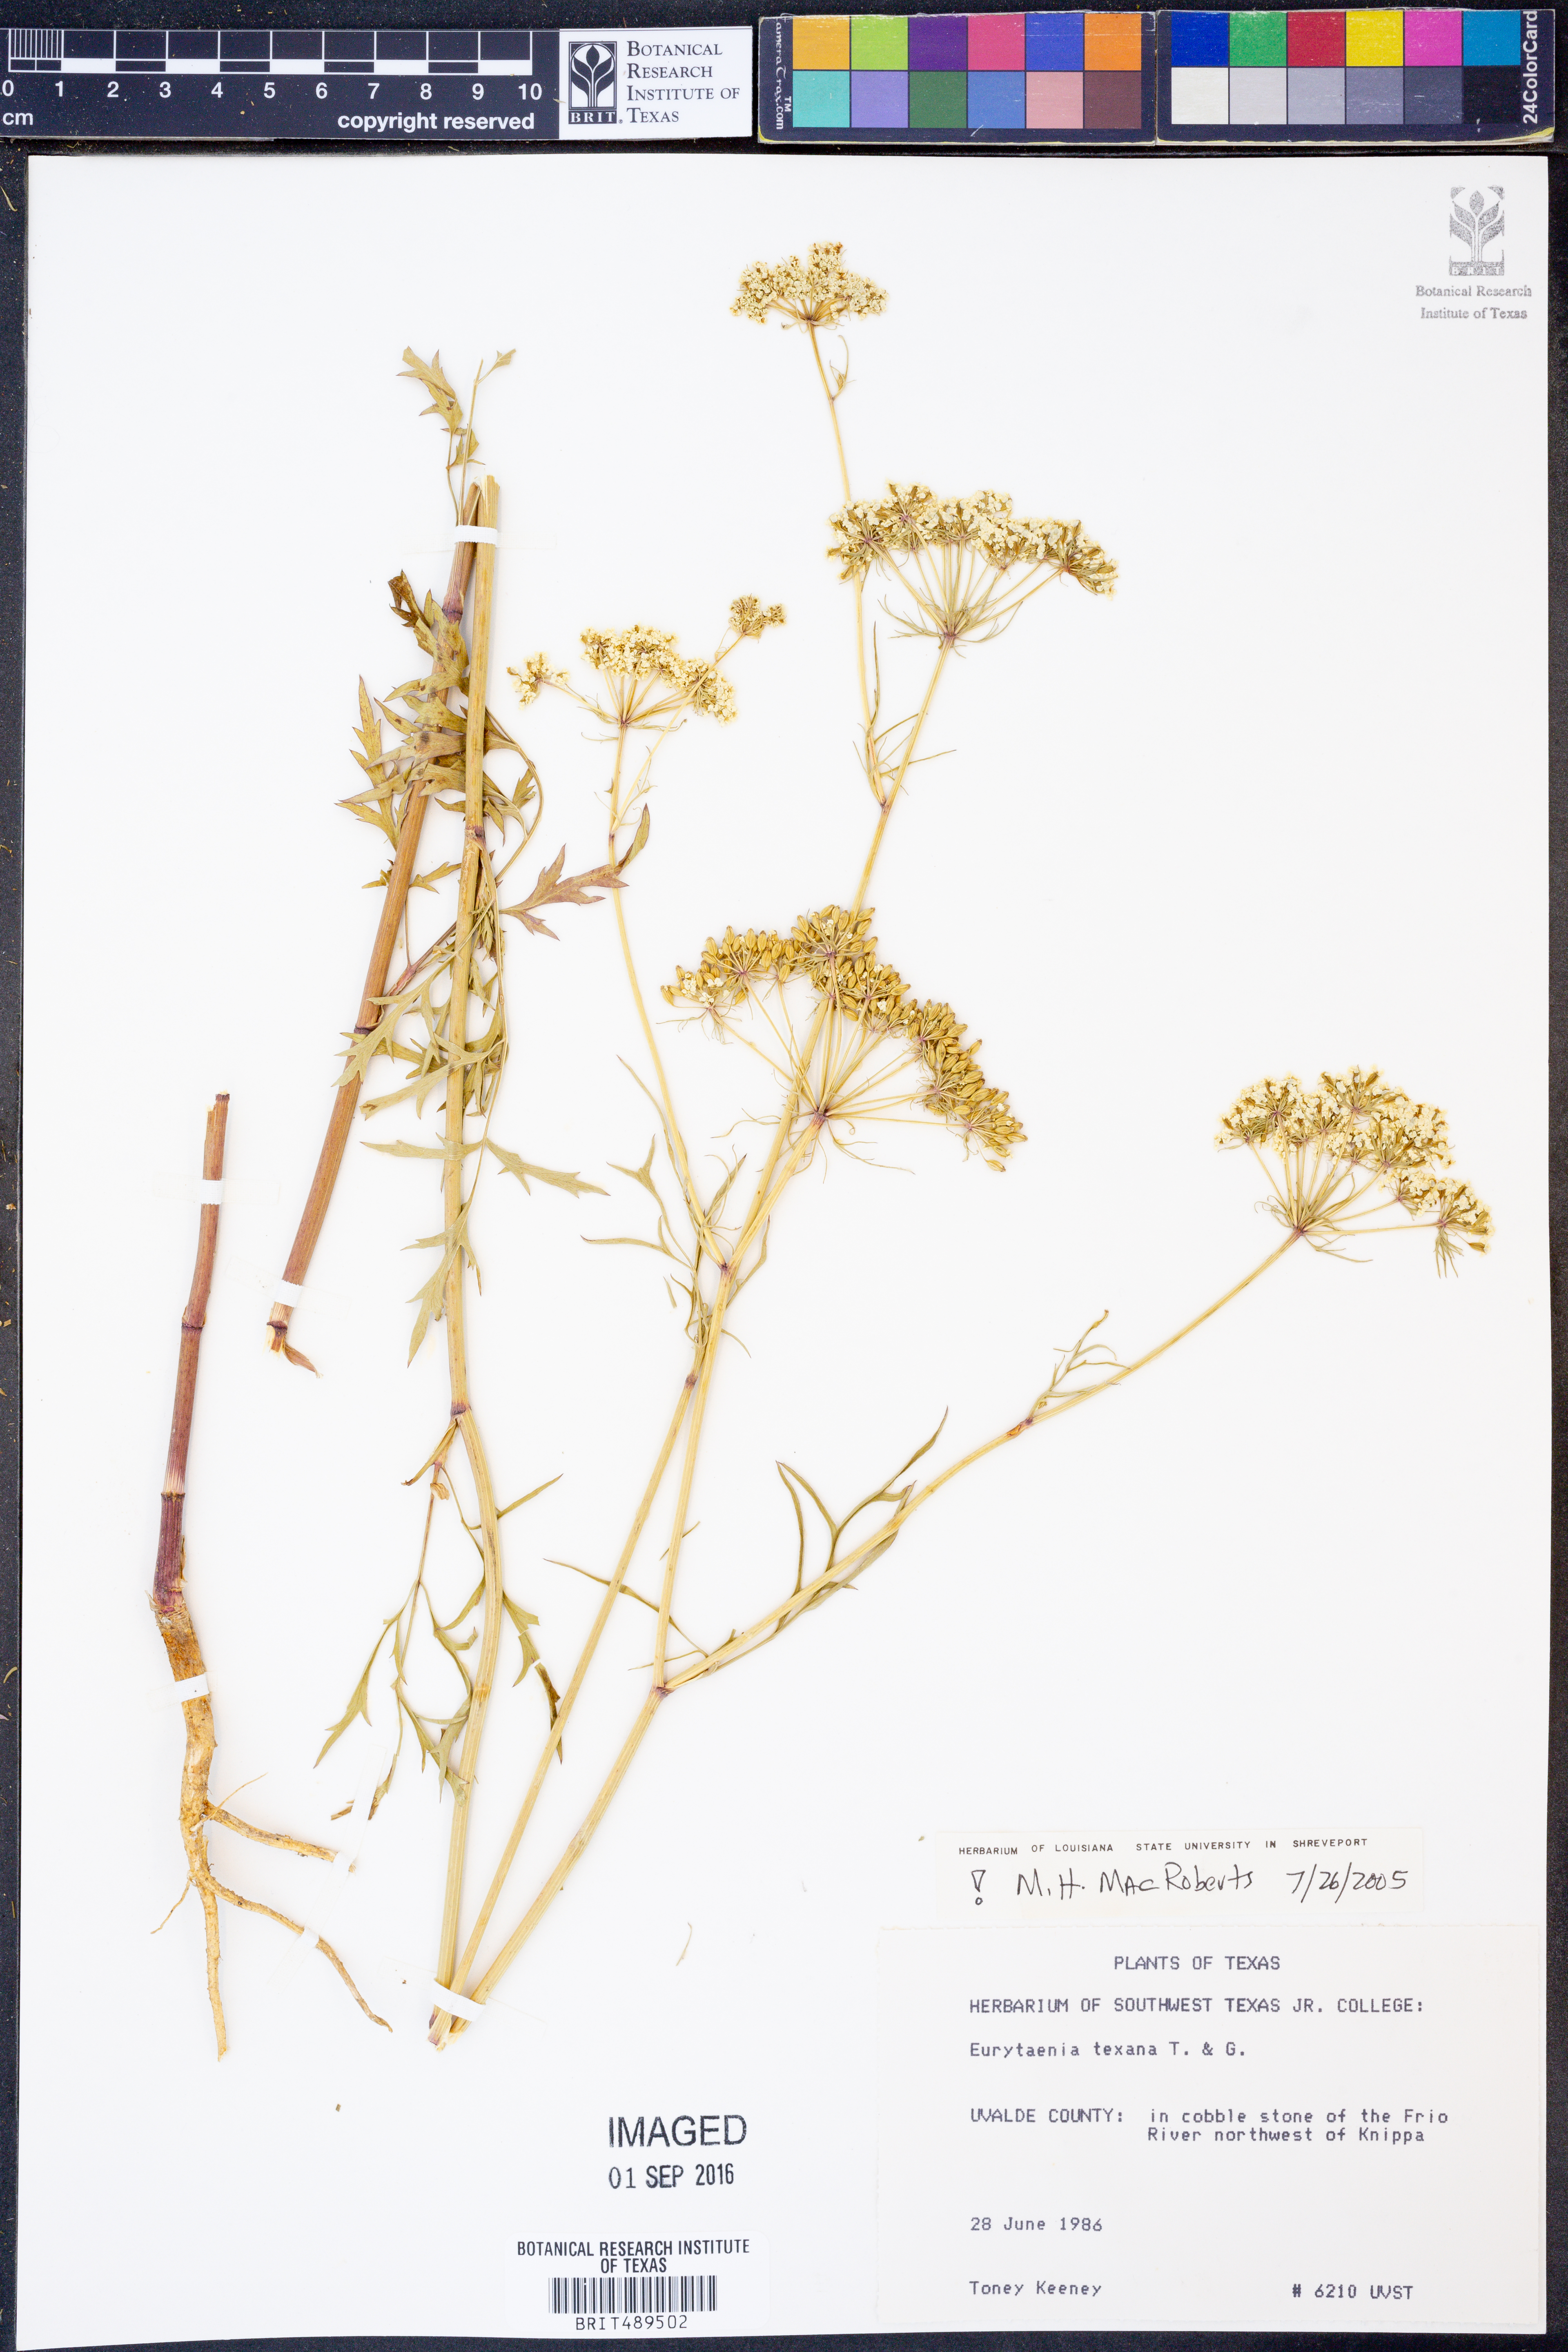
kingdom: Plantae
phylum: Tracheophyta
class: Magnoliopsida
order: Apiales
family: Apiaceae
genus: Eurytaenia
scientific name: Eurytaenia texana
